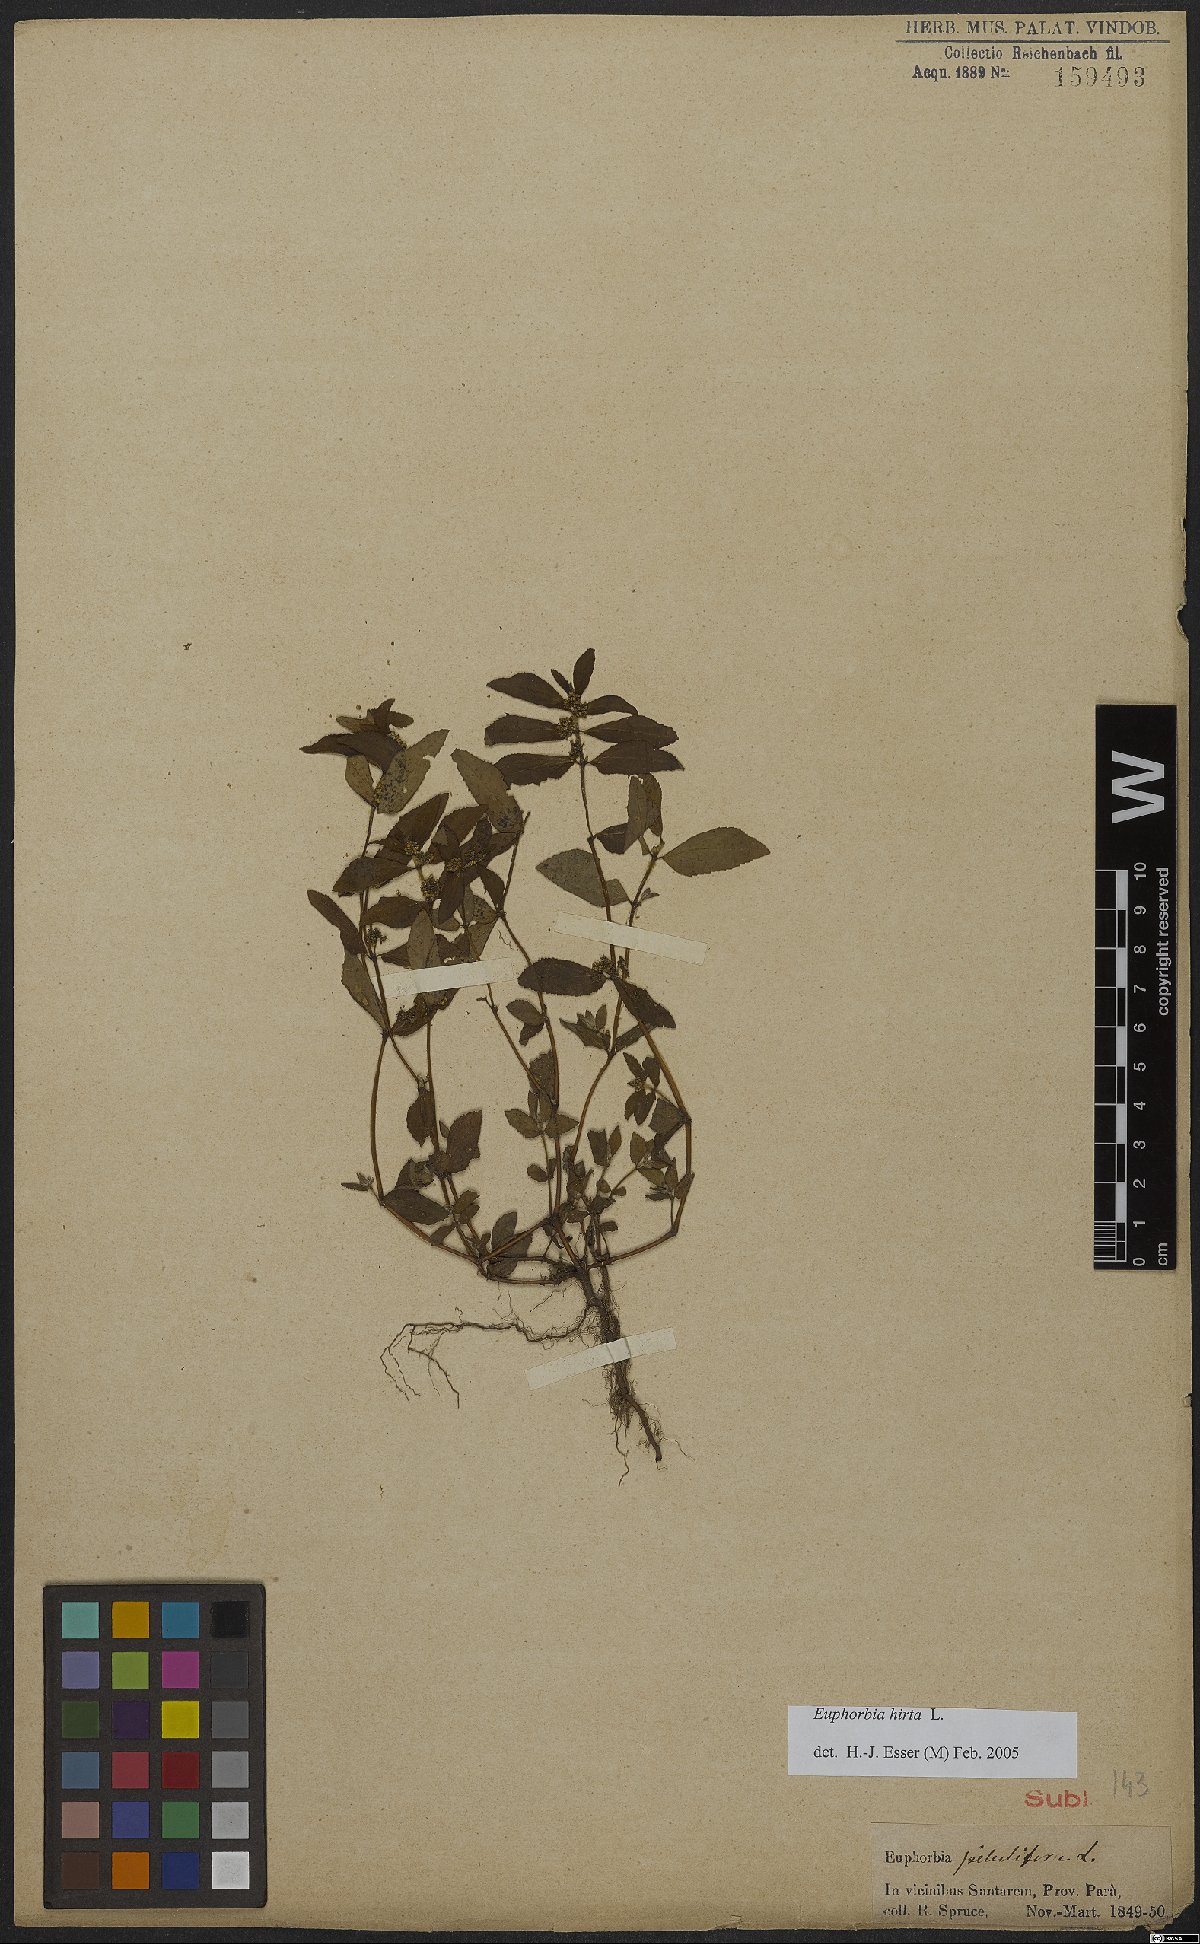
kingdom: Plantae
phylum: Tracheophyta
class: Magnoliopsida
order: Malpighiales
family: Euphorbiaceae
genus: Euphorbia
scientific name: Euphorbia hirta
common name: Pillpod sandmat
